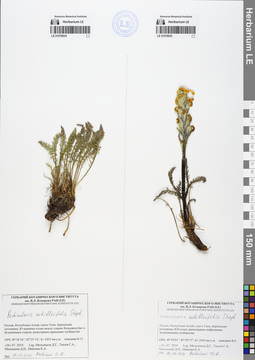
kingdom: Plantae
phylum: Tracheophyta
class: Magnoliopsida
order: Lamiales
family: Orobanchaceae
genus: Pedicularis
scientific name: Pedicularis achilleifolia
